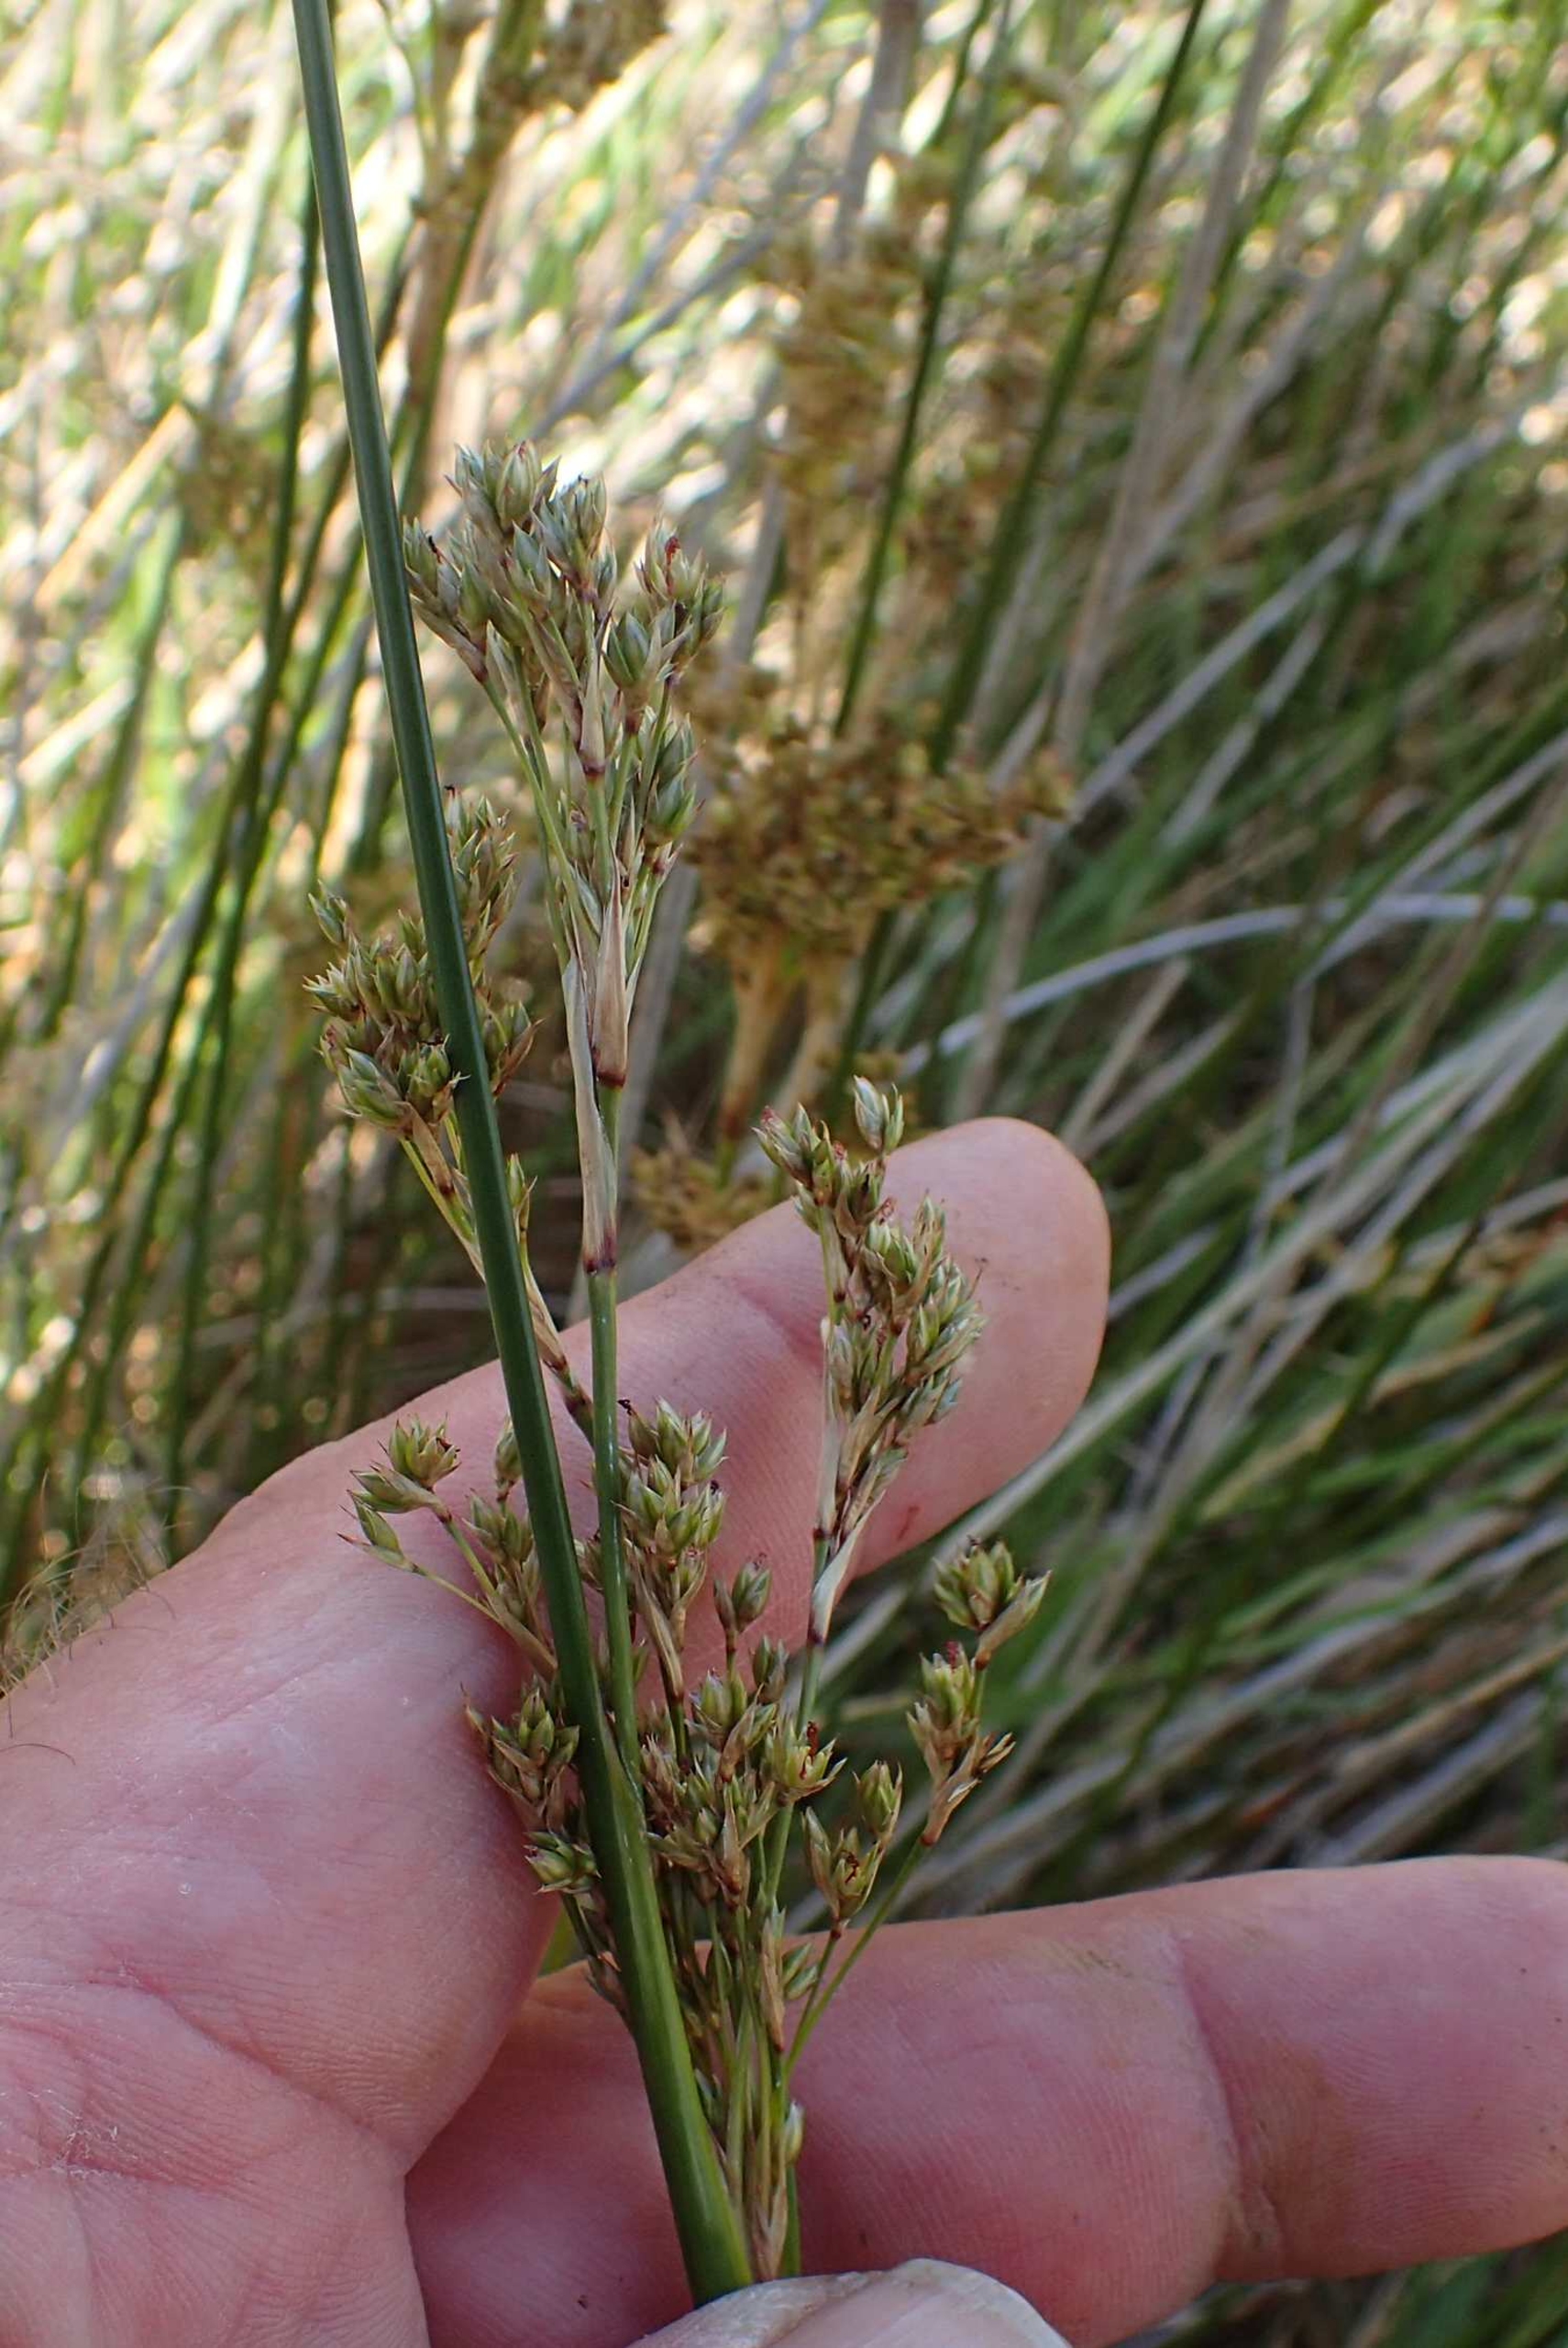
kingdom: Plantae
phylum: Tracheophyta
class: Liliopsida
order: Poales
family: Juncaceae
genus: Juncus
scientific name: Juncus maritimus
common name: Strand-siv
